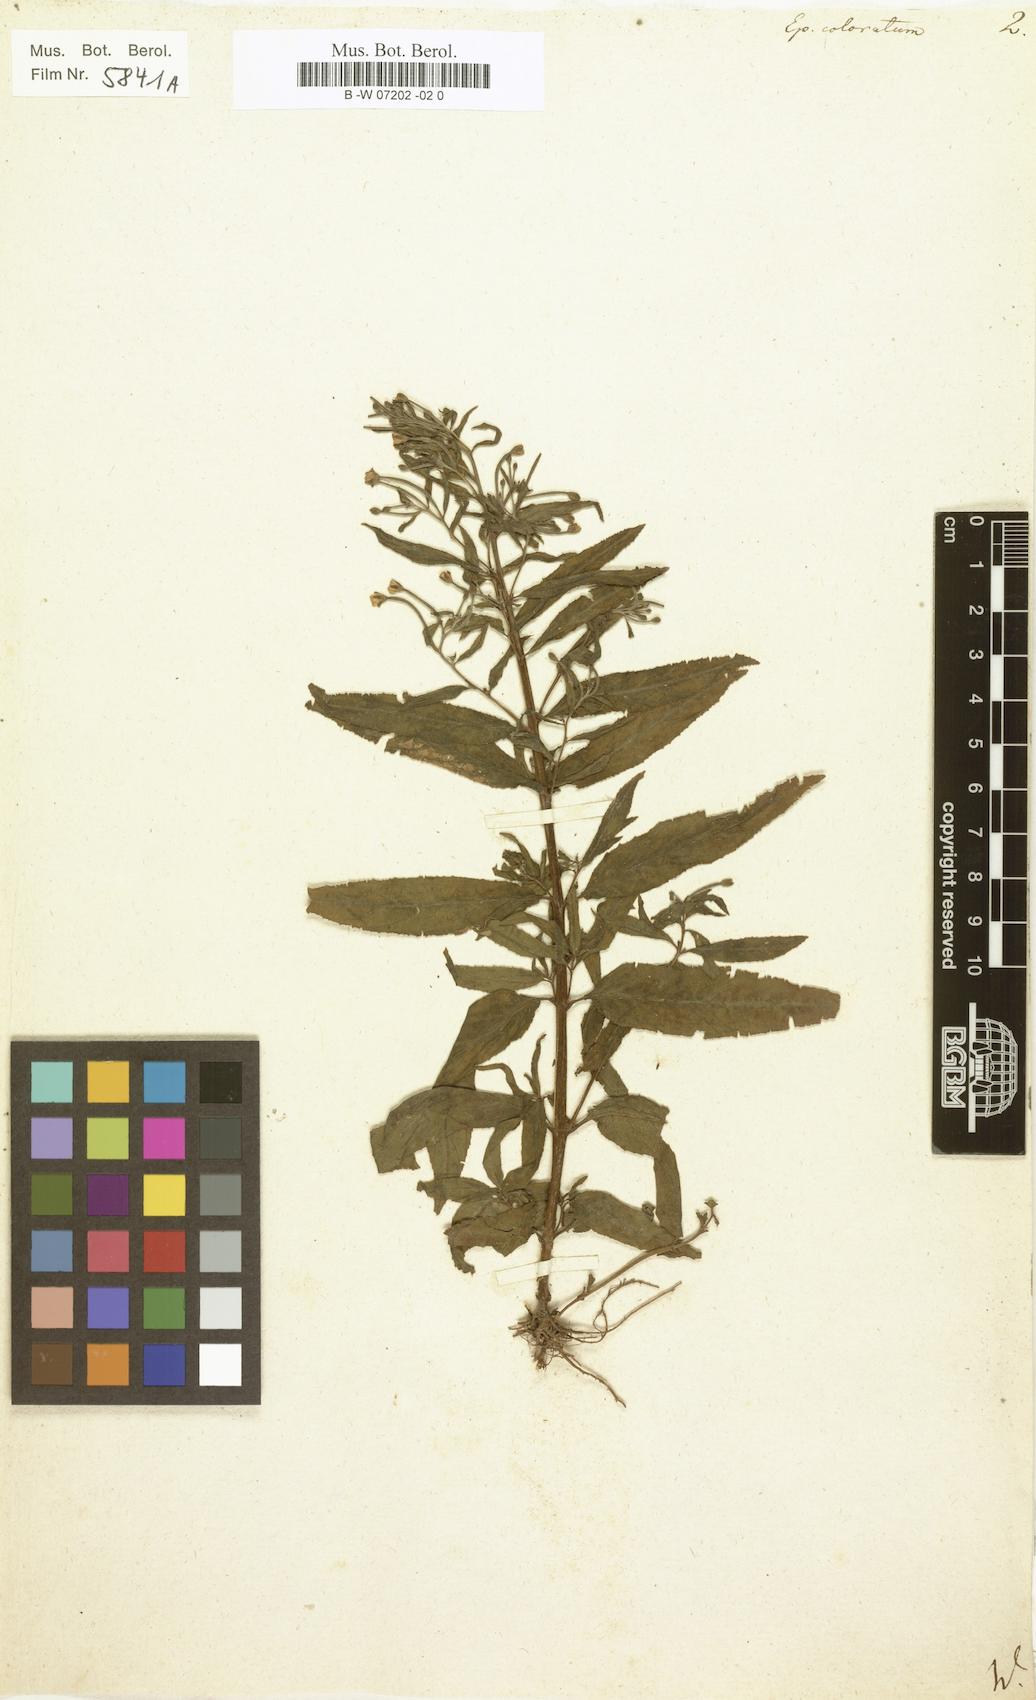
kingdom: Plantae
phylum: Tracheophyta
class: Magnoliopsida
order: Myrtales
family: Onagraceae
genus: Epilobium
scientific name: Epilobium coloratum
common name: Bronze willowherb
